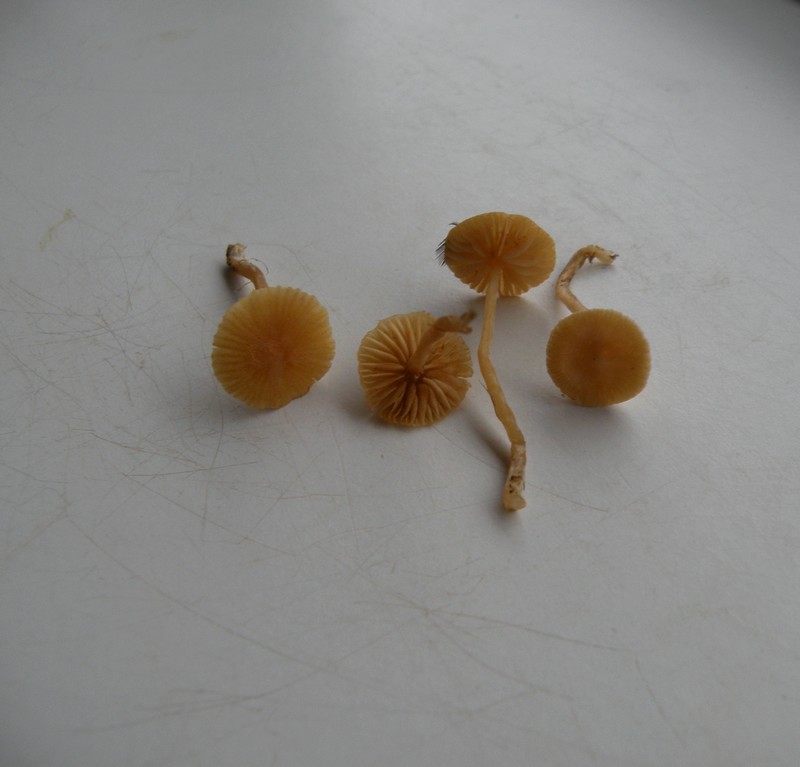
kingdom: Fungi
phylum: Basidiomycota
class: Agaricomycetes
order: Agaricales
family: Tubariaceae
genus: Tubaria
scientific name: Tubaria dispersa
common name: tjørne-fnughat
